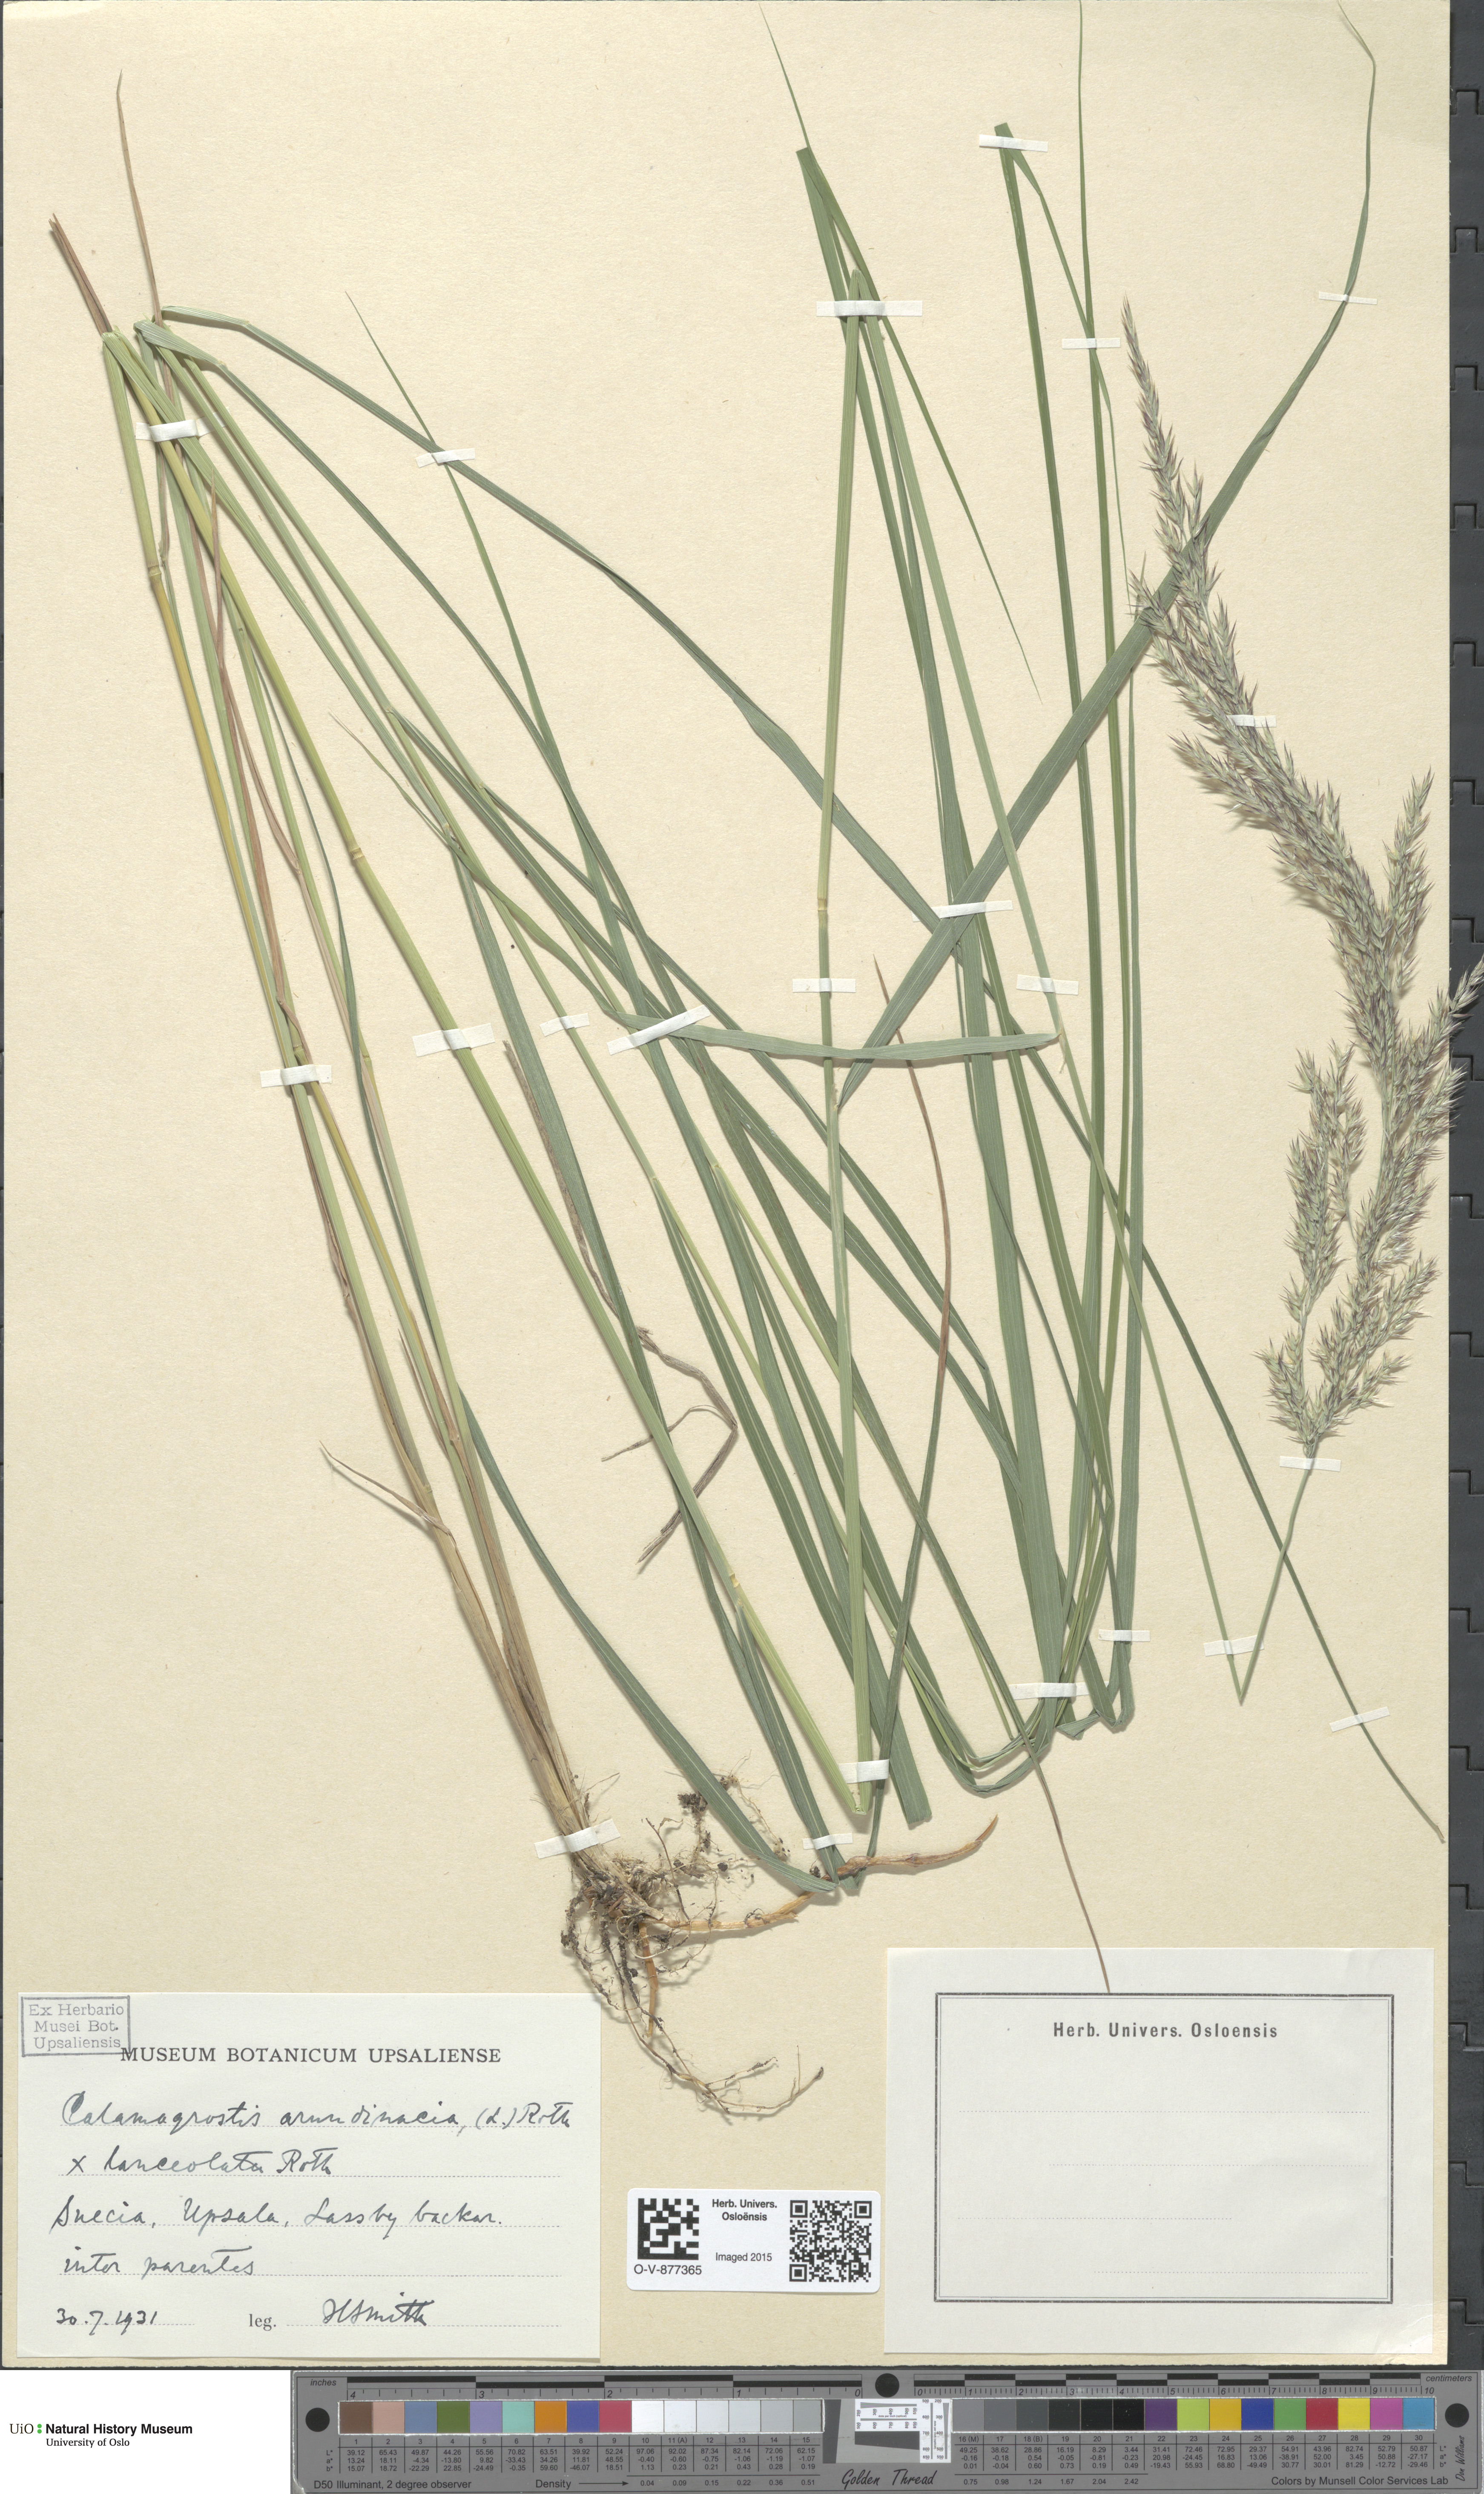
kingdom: Plantae
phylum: Tracheophyta
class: Liliopsida
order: Poales
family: Poaceae
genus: Calamagrostis
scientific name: Calamagrostis
